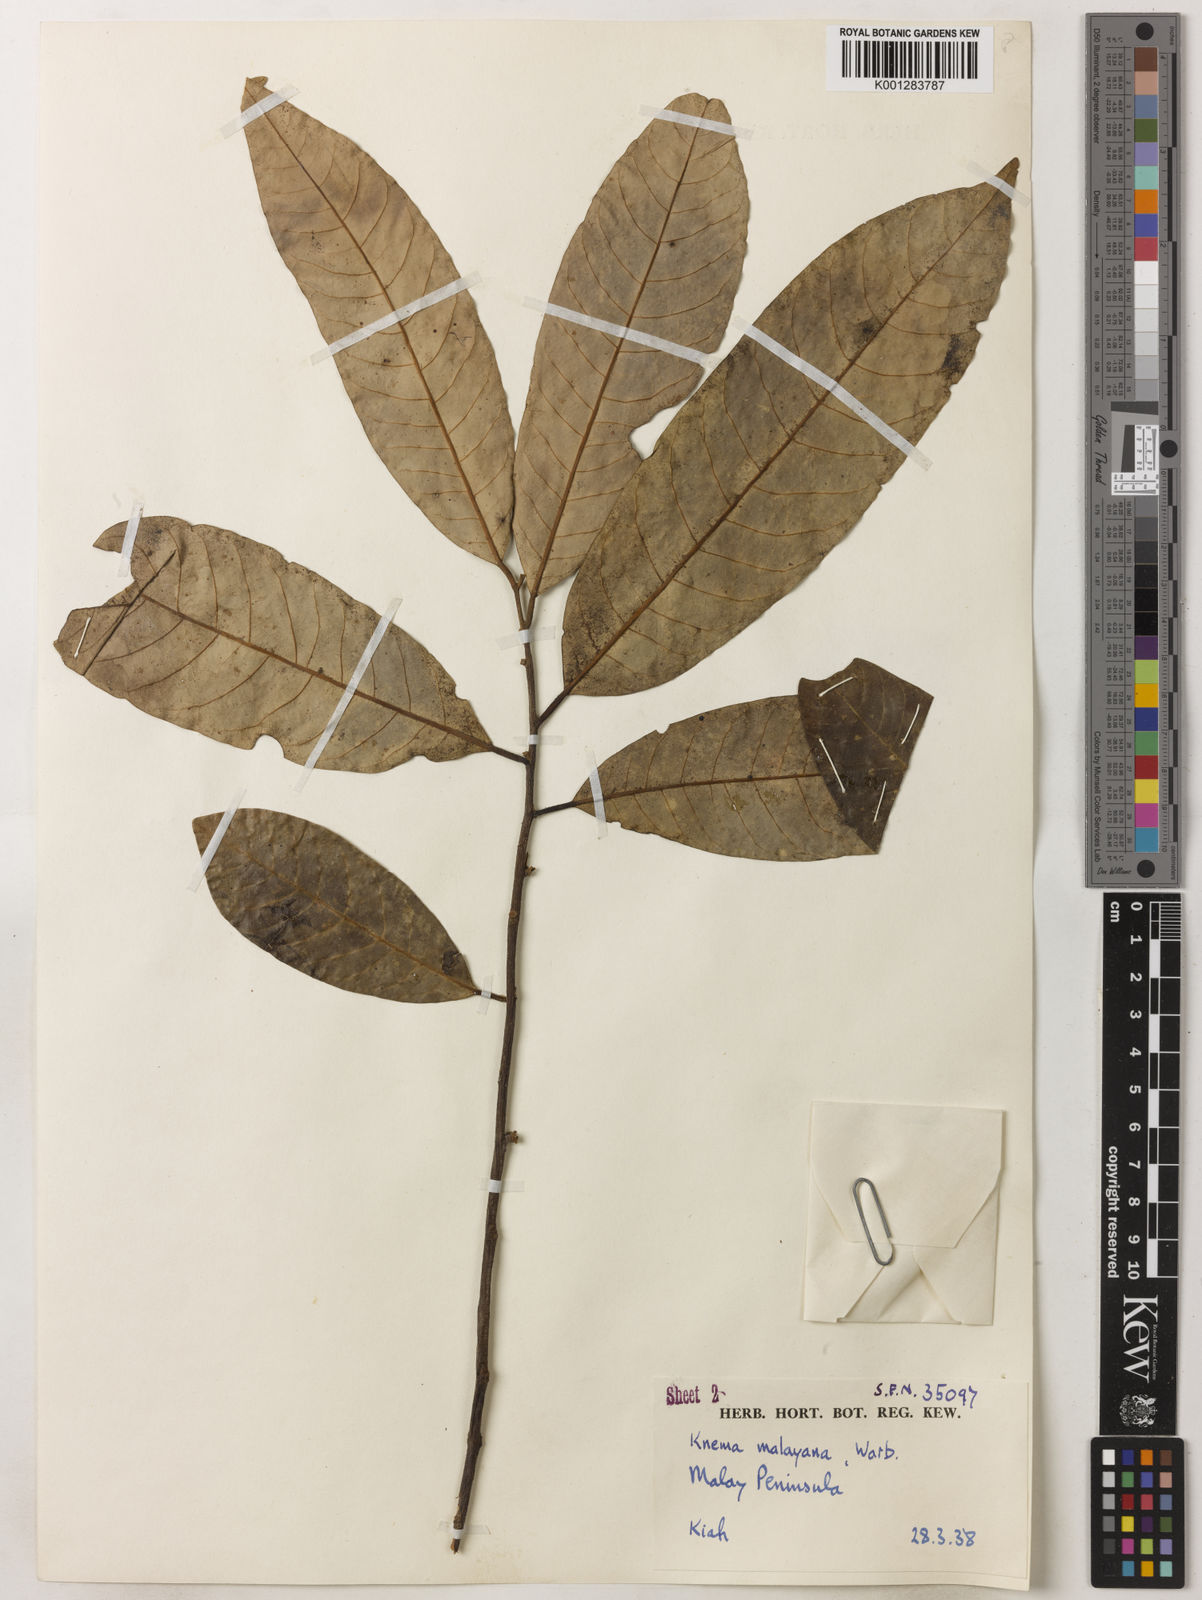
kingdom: Plantae
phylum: Tracheophyta
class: Magnoliopsida
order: Magnoliales
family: Myristicaceae
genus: Knema
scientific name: Knema malayana
